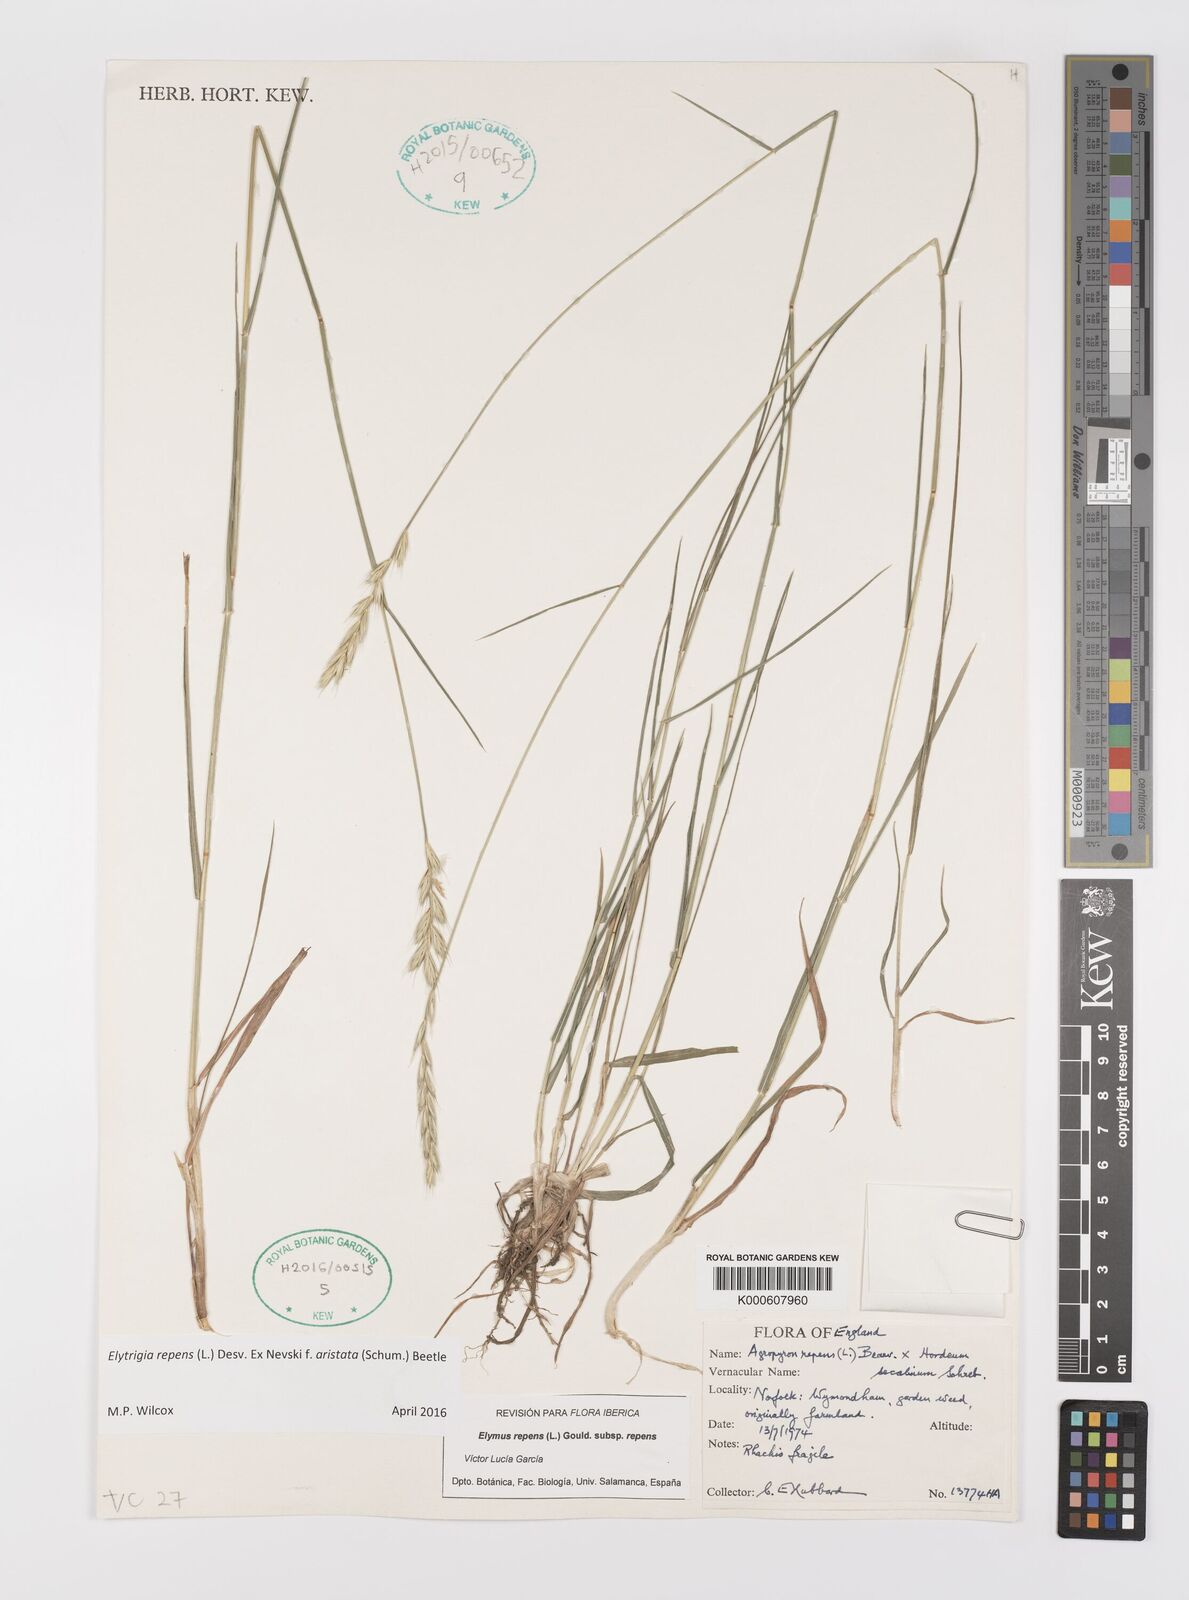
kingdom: Plantae
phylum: Tracheophyta
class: Liliopsida
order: Poales
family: Poaceae
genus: Elymus
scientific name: Elymus repens
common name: Quackgrass
